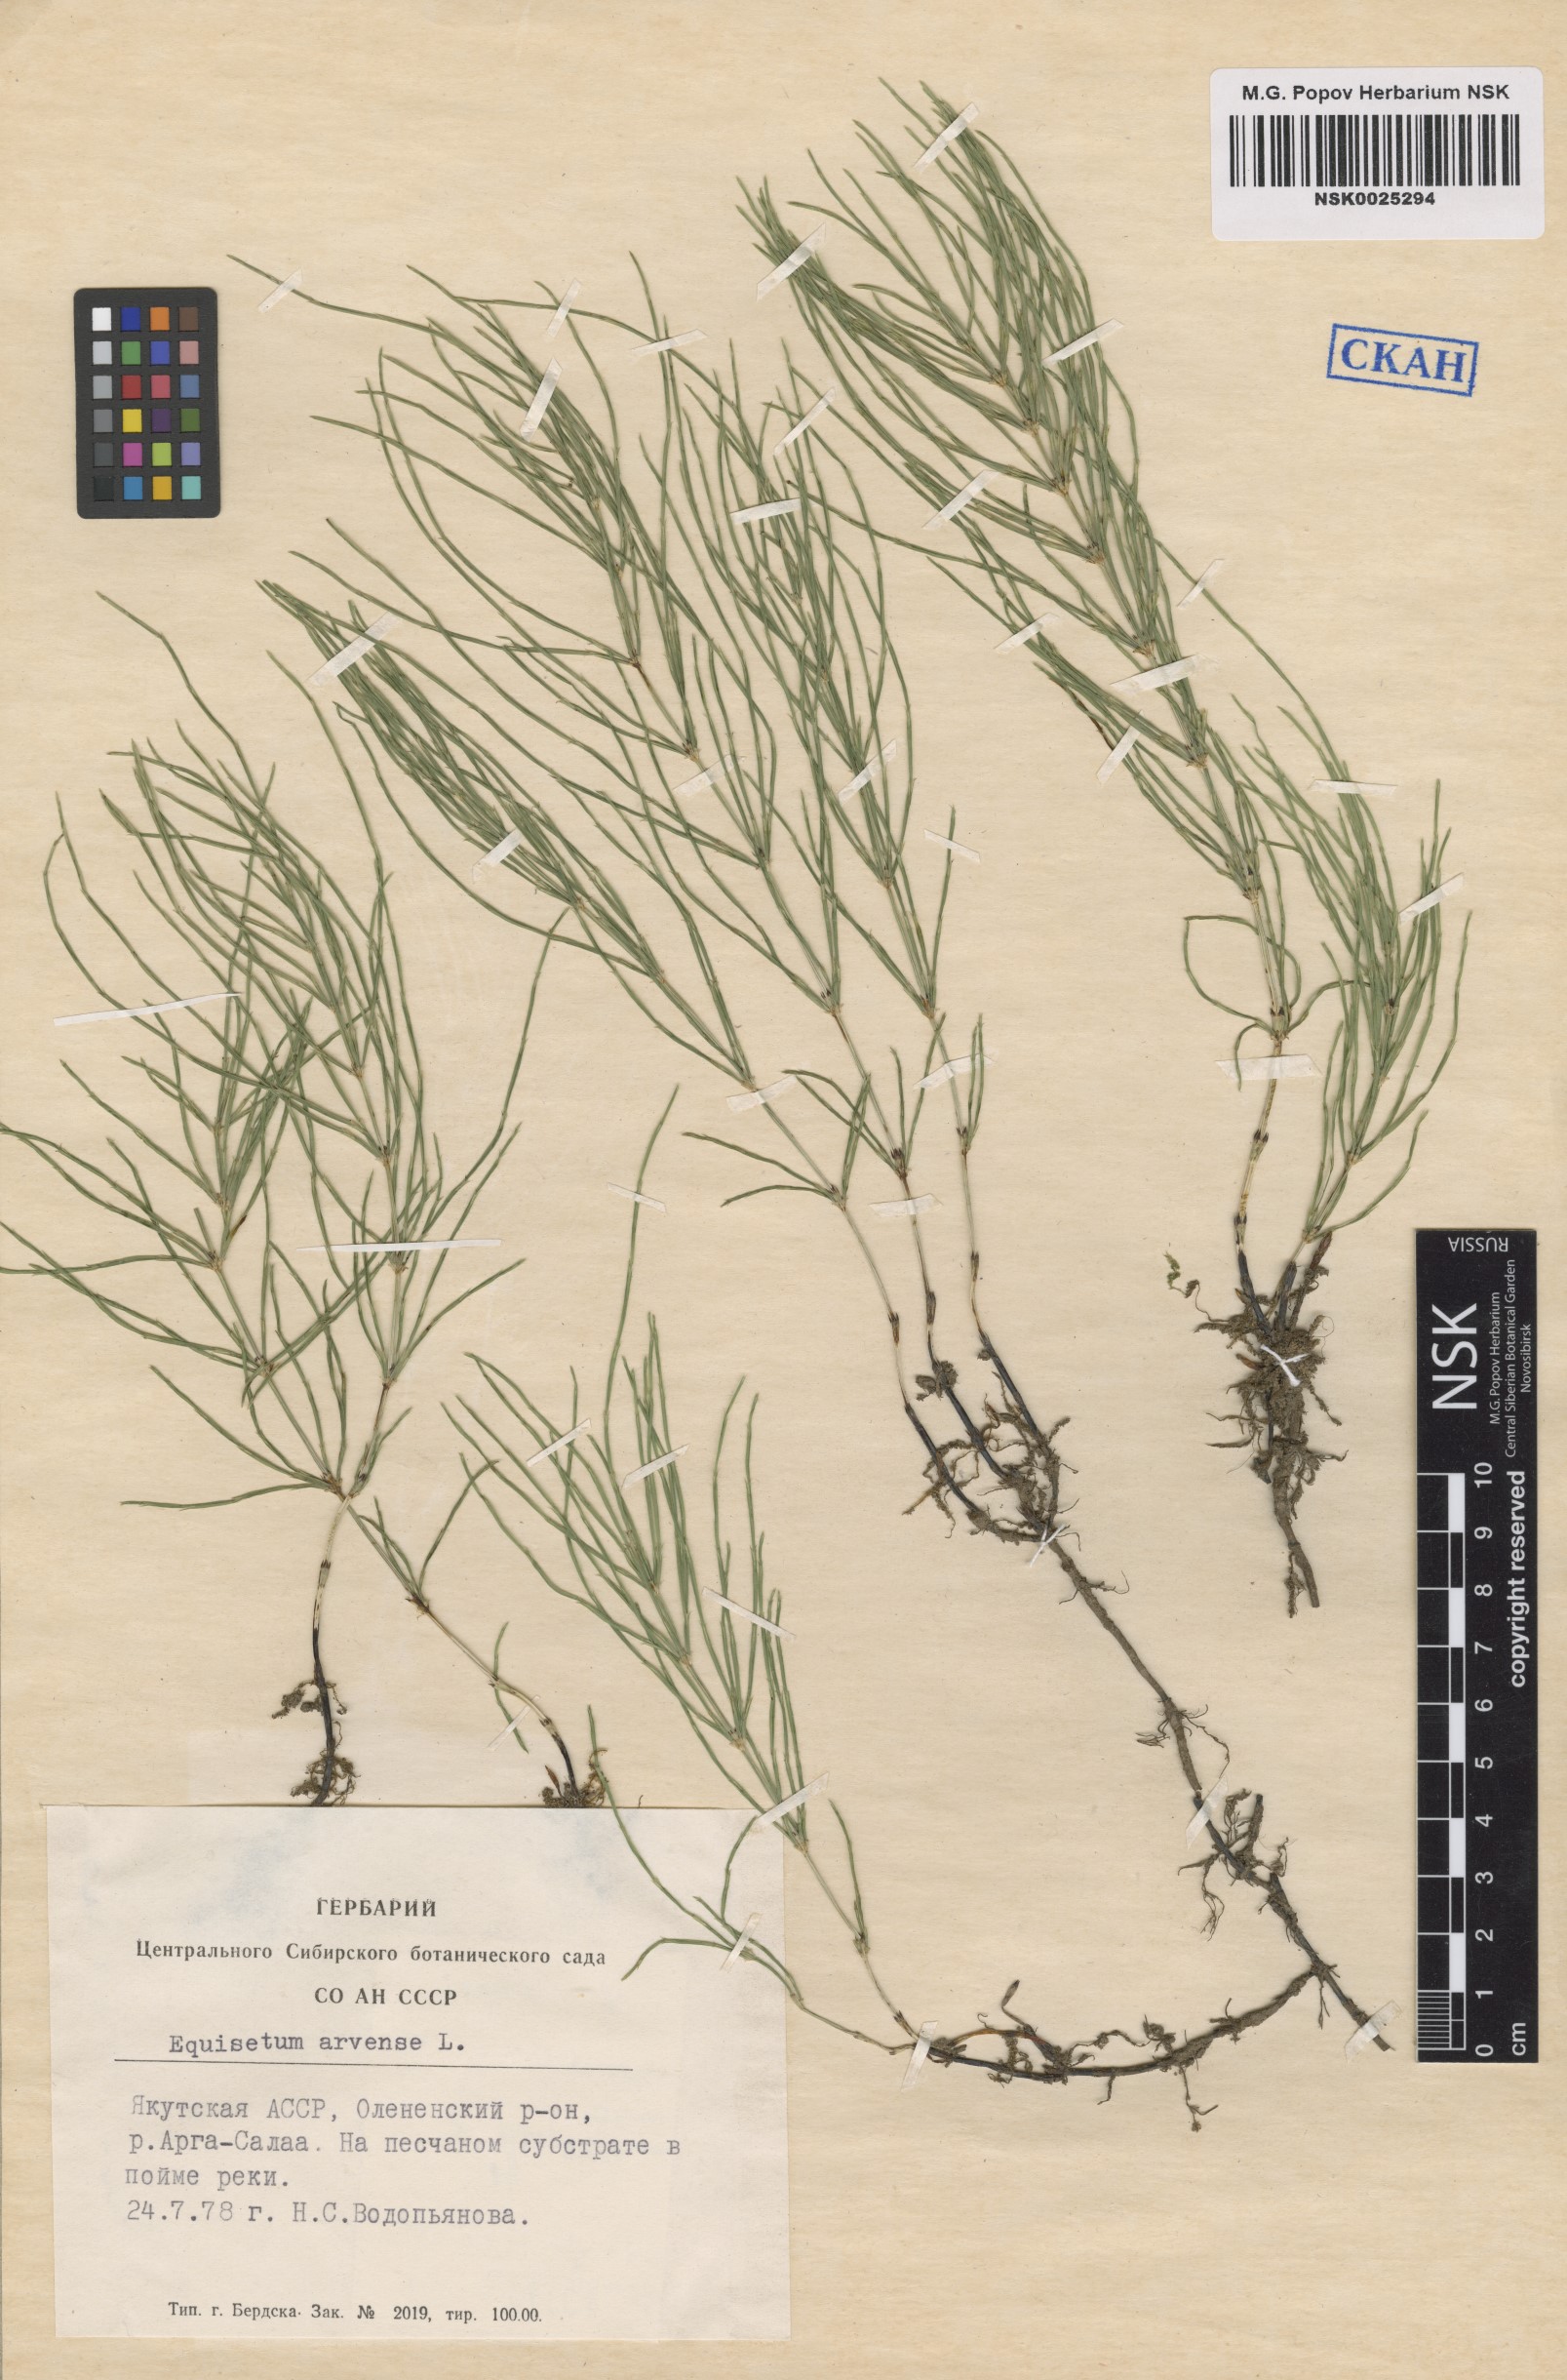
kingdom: Plantae
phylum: Tracheophyta
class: Polypodiopsida
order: Equisetales
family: Equisetaceae
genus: Equisetum
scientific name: Equisetum arvense
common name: Field horsetail
